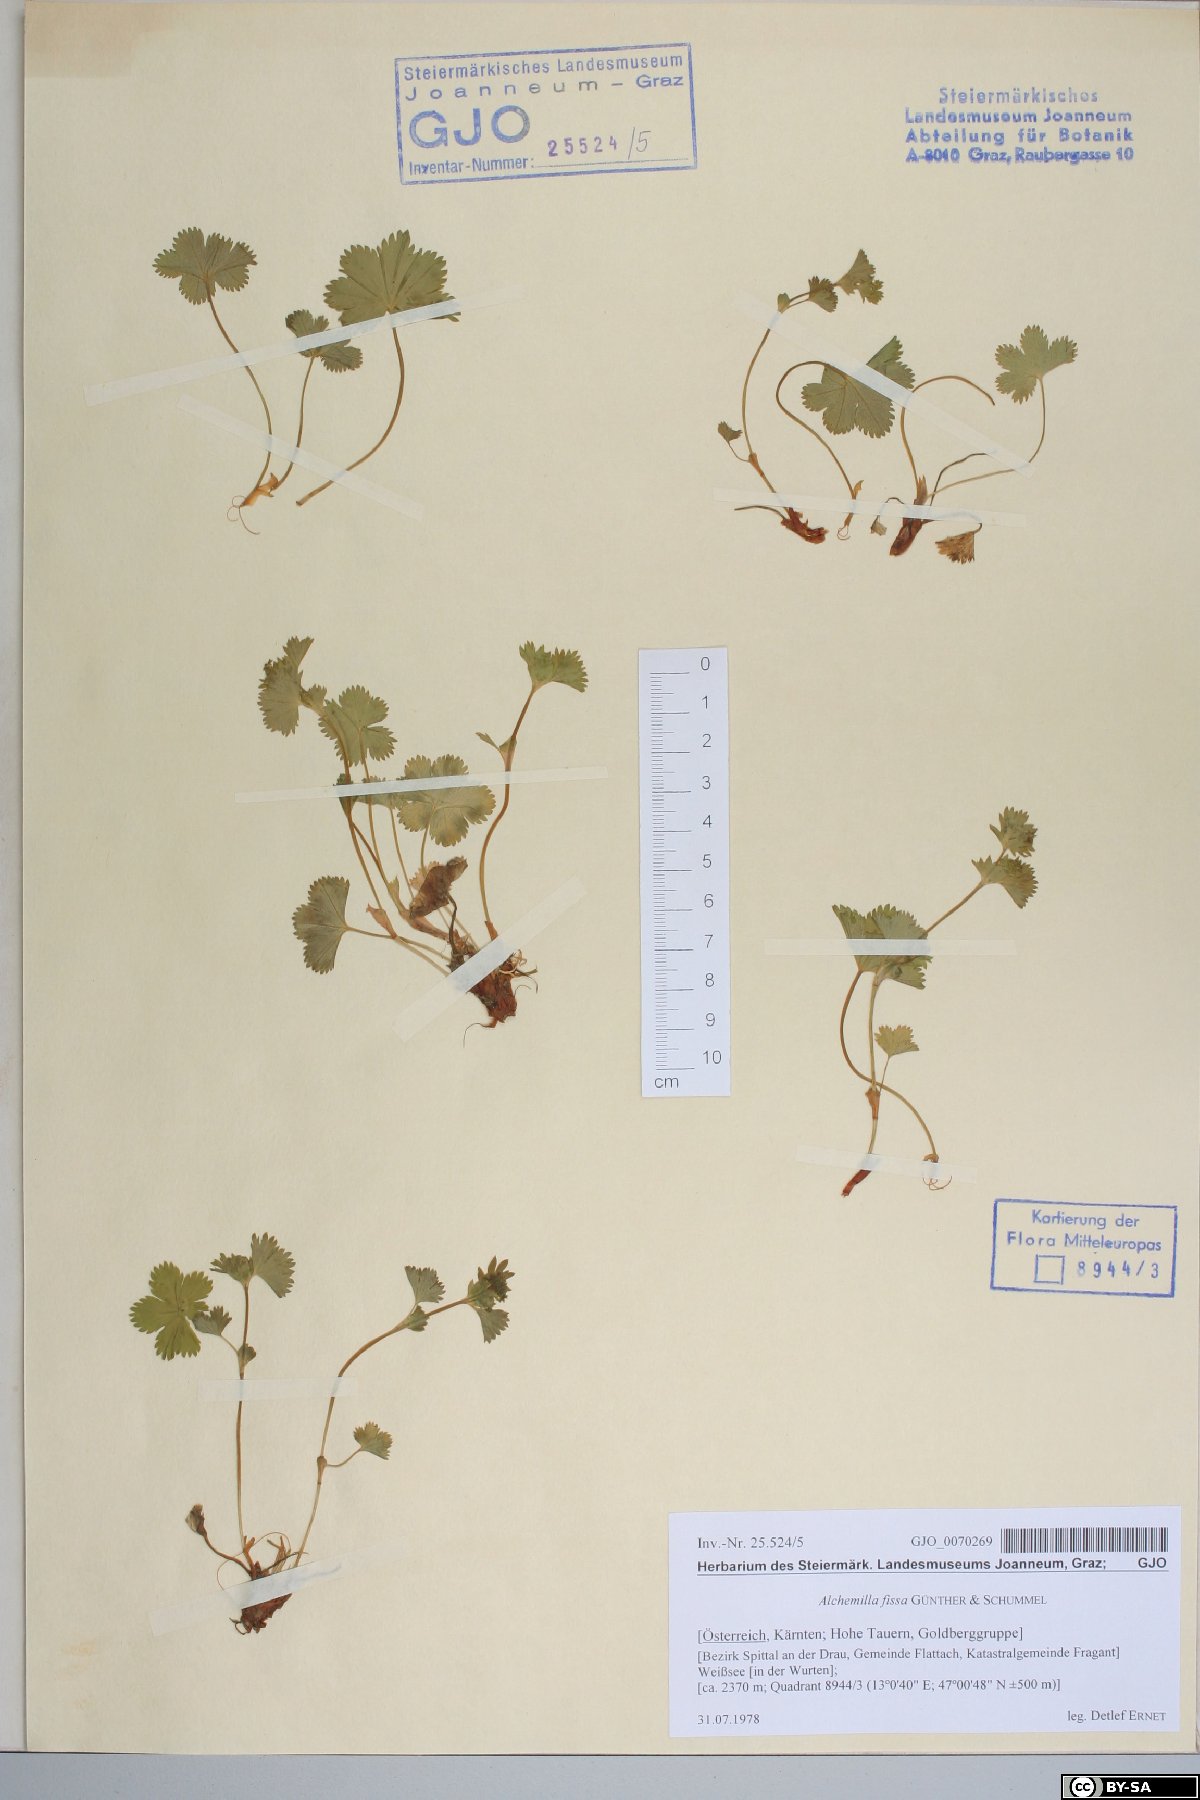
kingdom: Plantae
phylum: Tracheophyta
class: Magnoliopsida
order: Rosales
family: Rosaceae
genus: Alchemilla
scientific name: Alchemilla fissa
